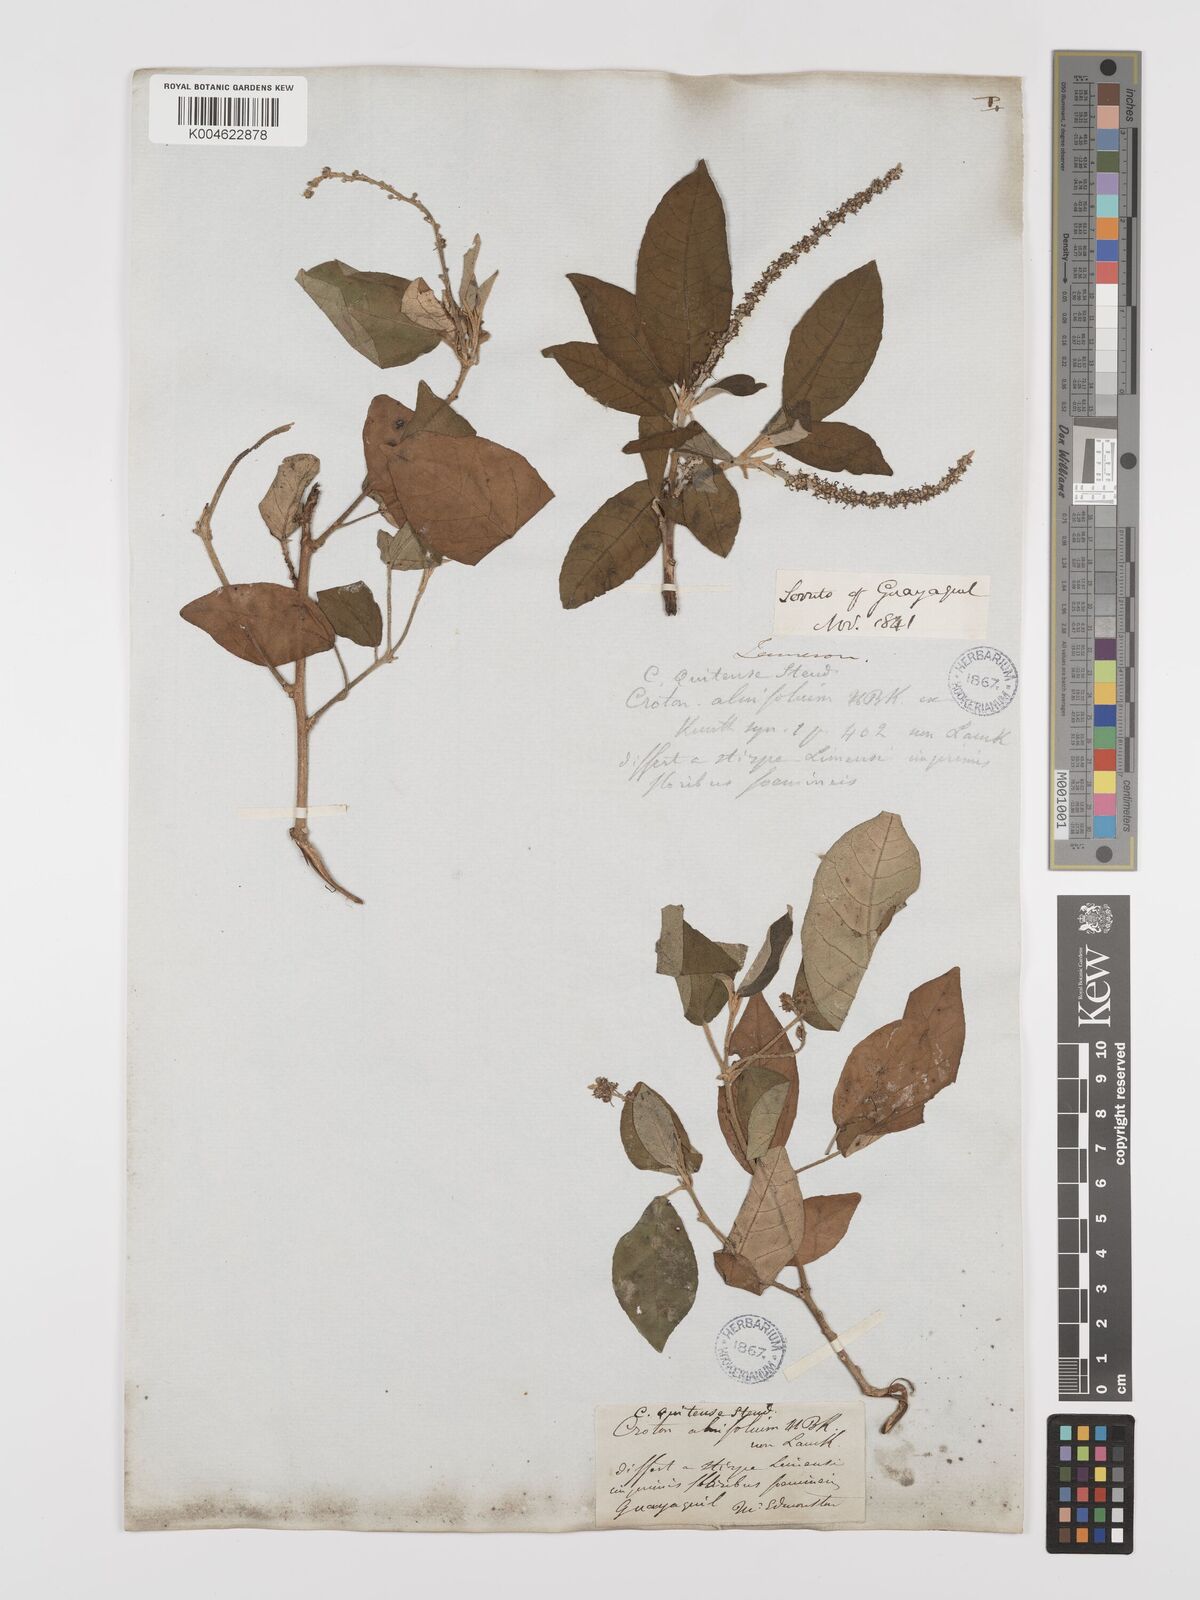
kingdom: Plantae
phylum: Tracheophyta
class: Magnoliopsida
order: Malpighiales
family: Euphorbiaceae
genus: Croton
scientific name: Croton alnifolius
